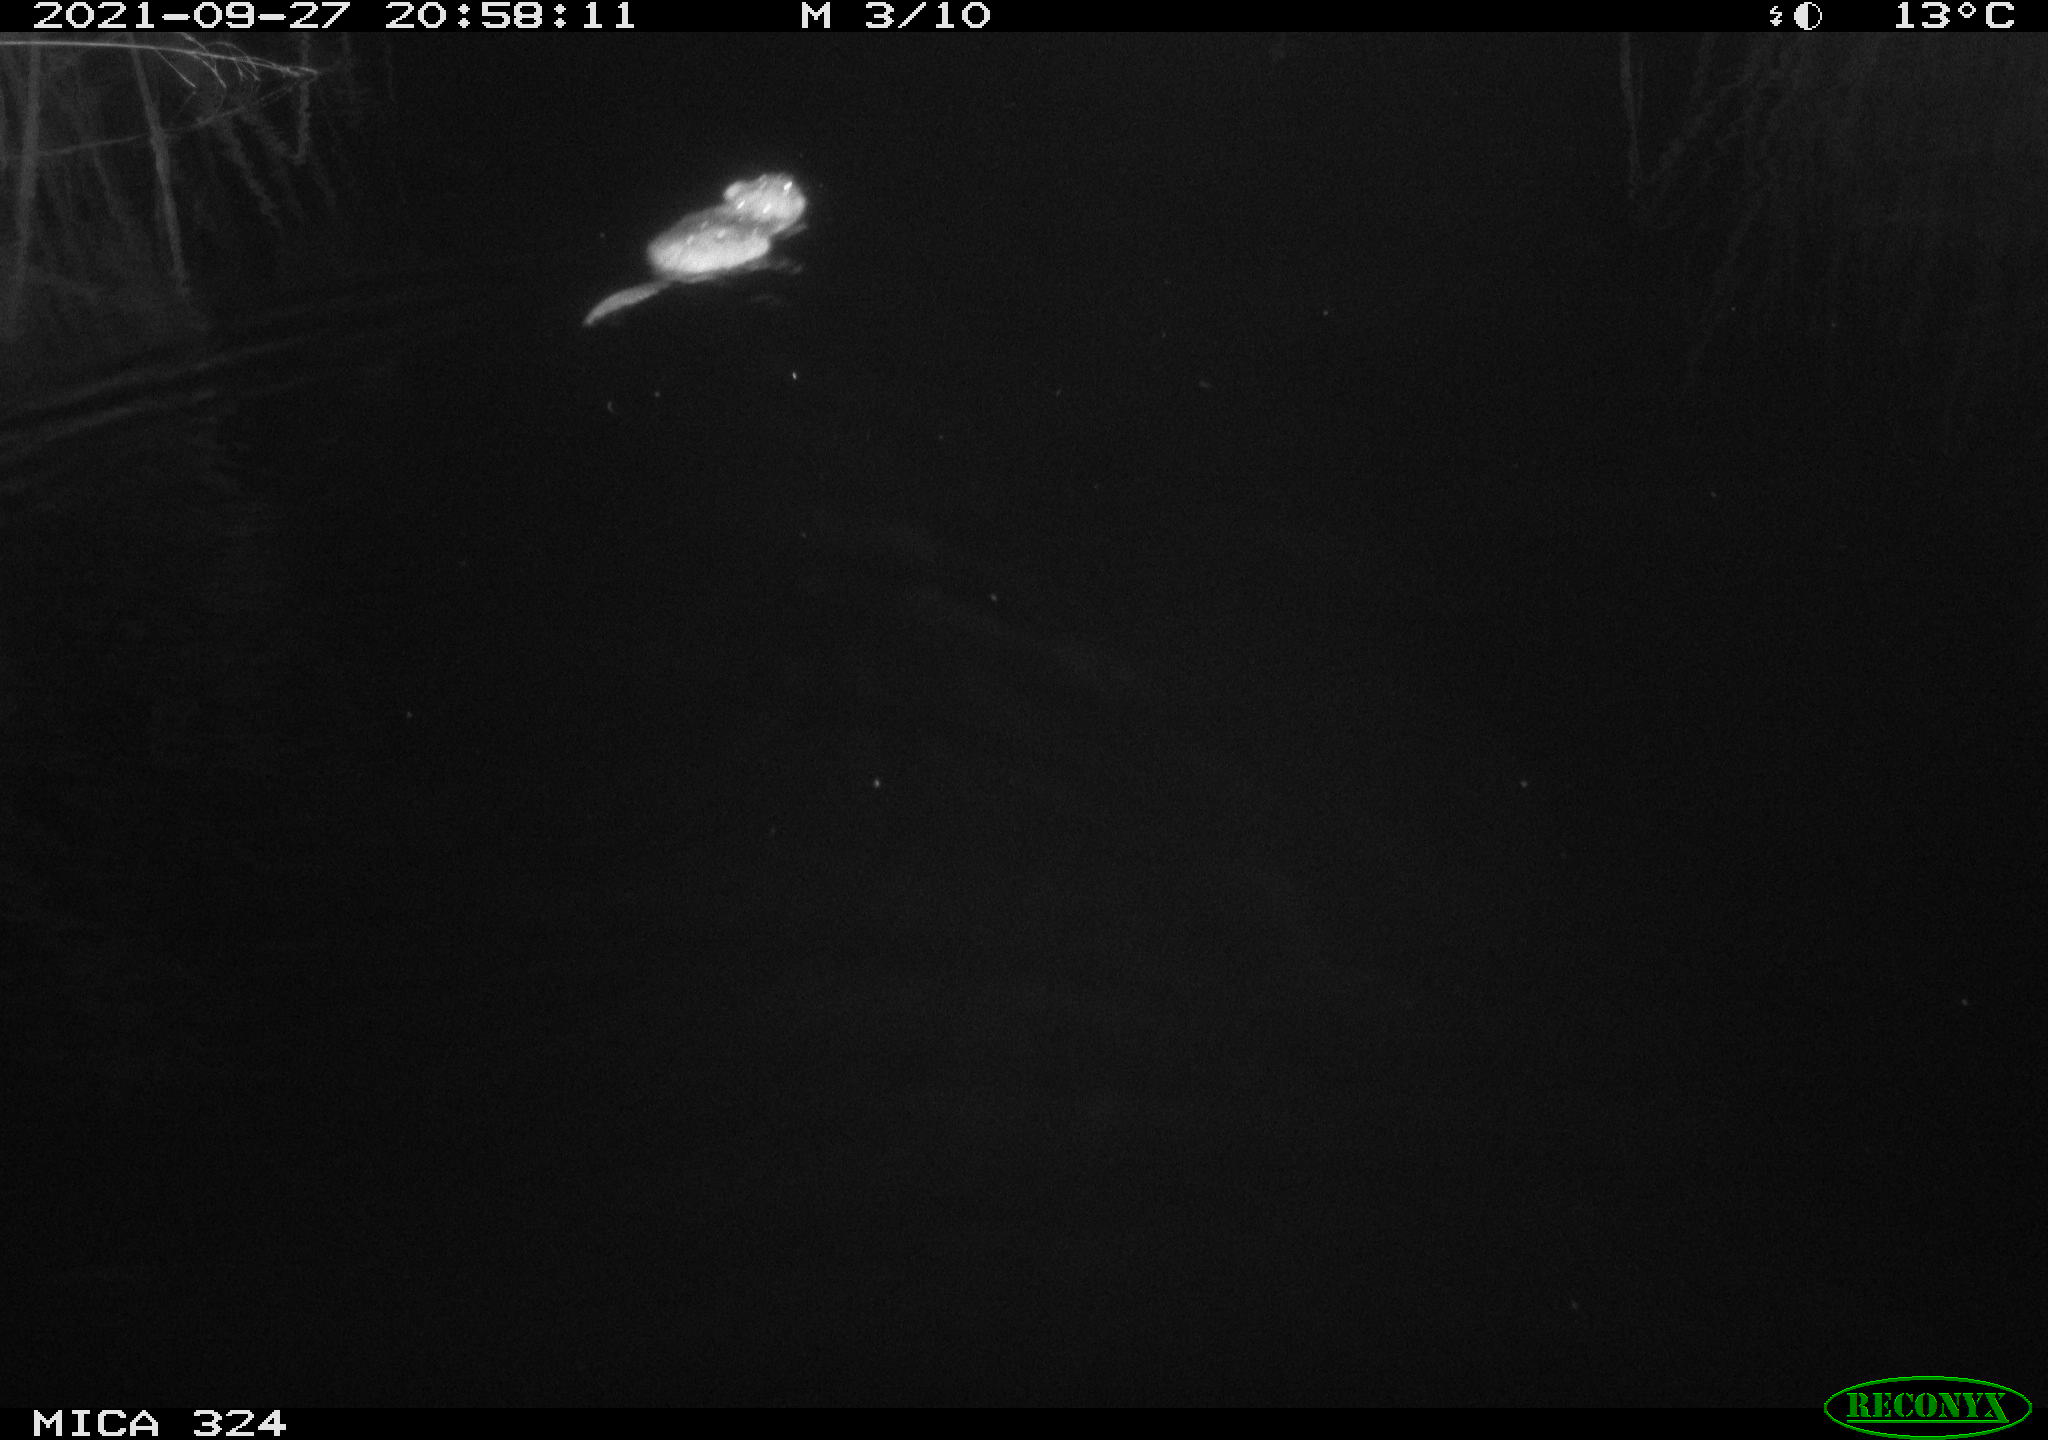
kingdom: Animalia
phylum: Chordata
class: Mammalia
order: Rodentia
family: Cricetidae
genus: Ondatra
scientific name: Ondatra zibethicus
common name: Muskrat
